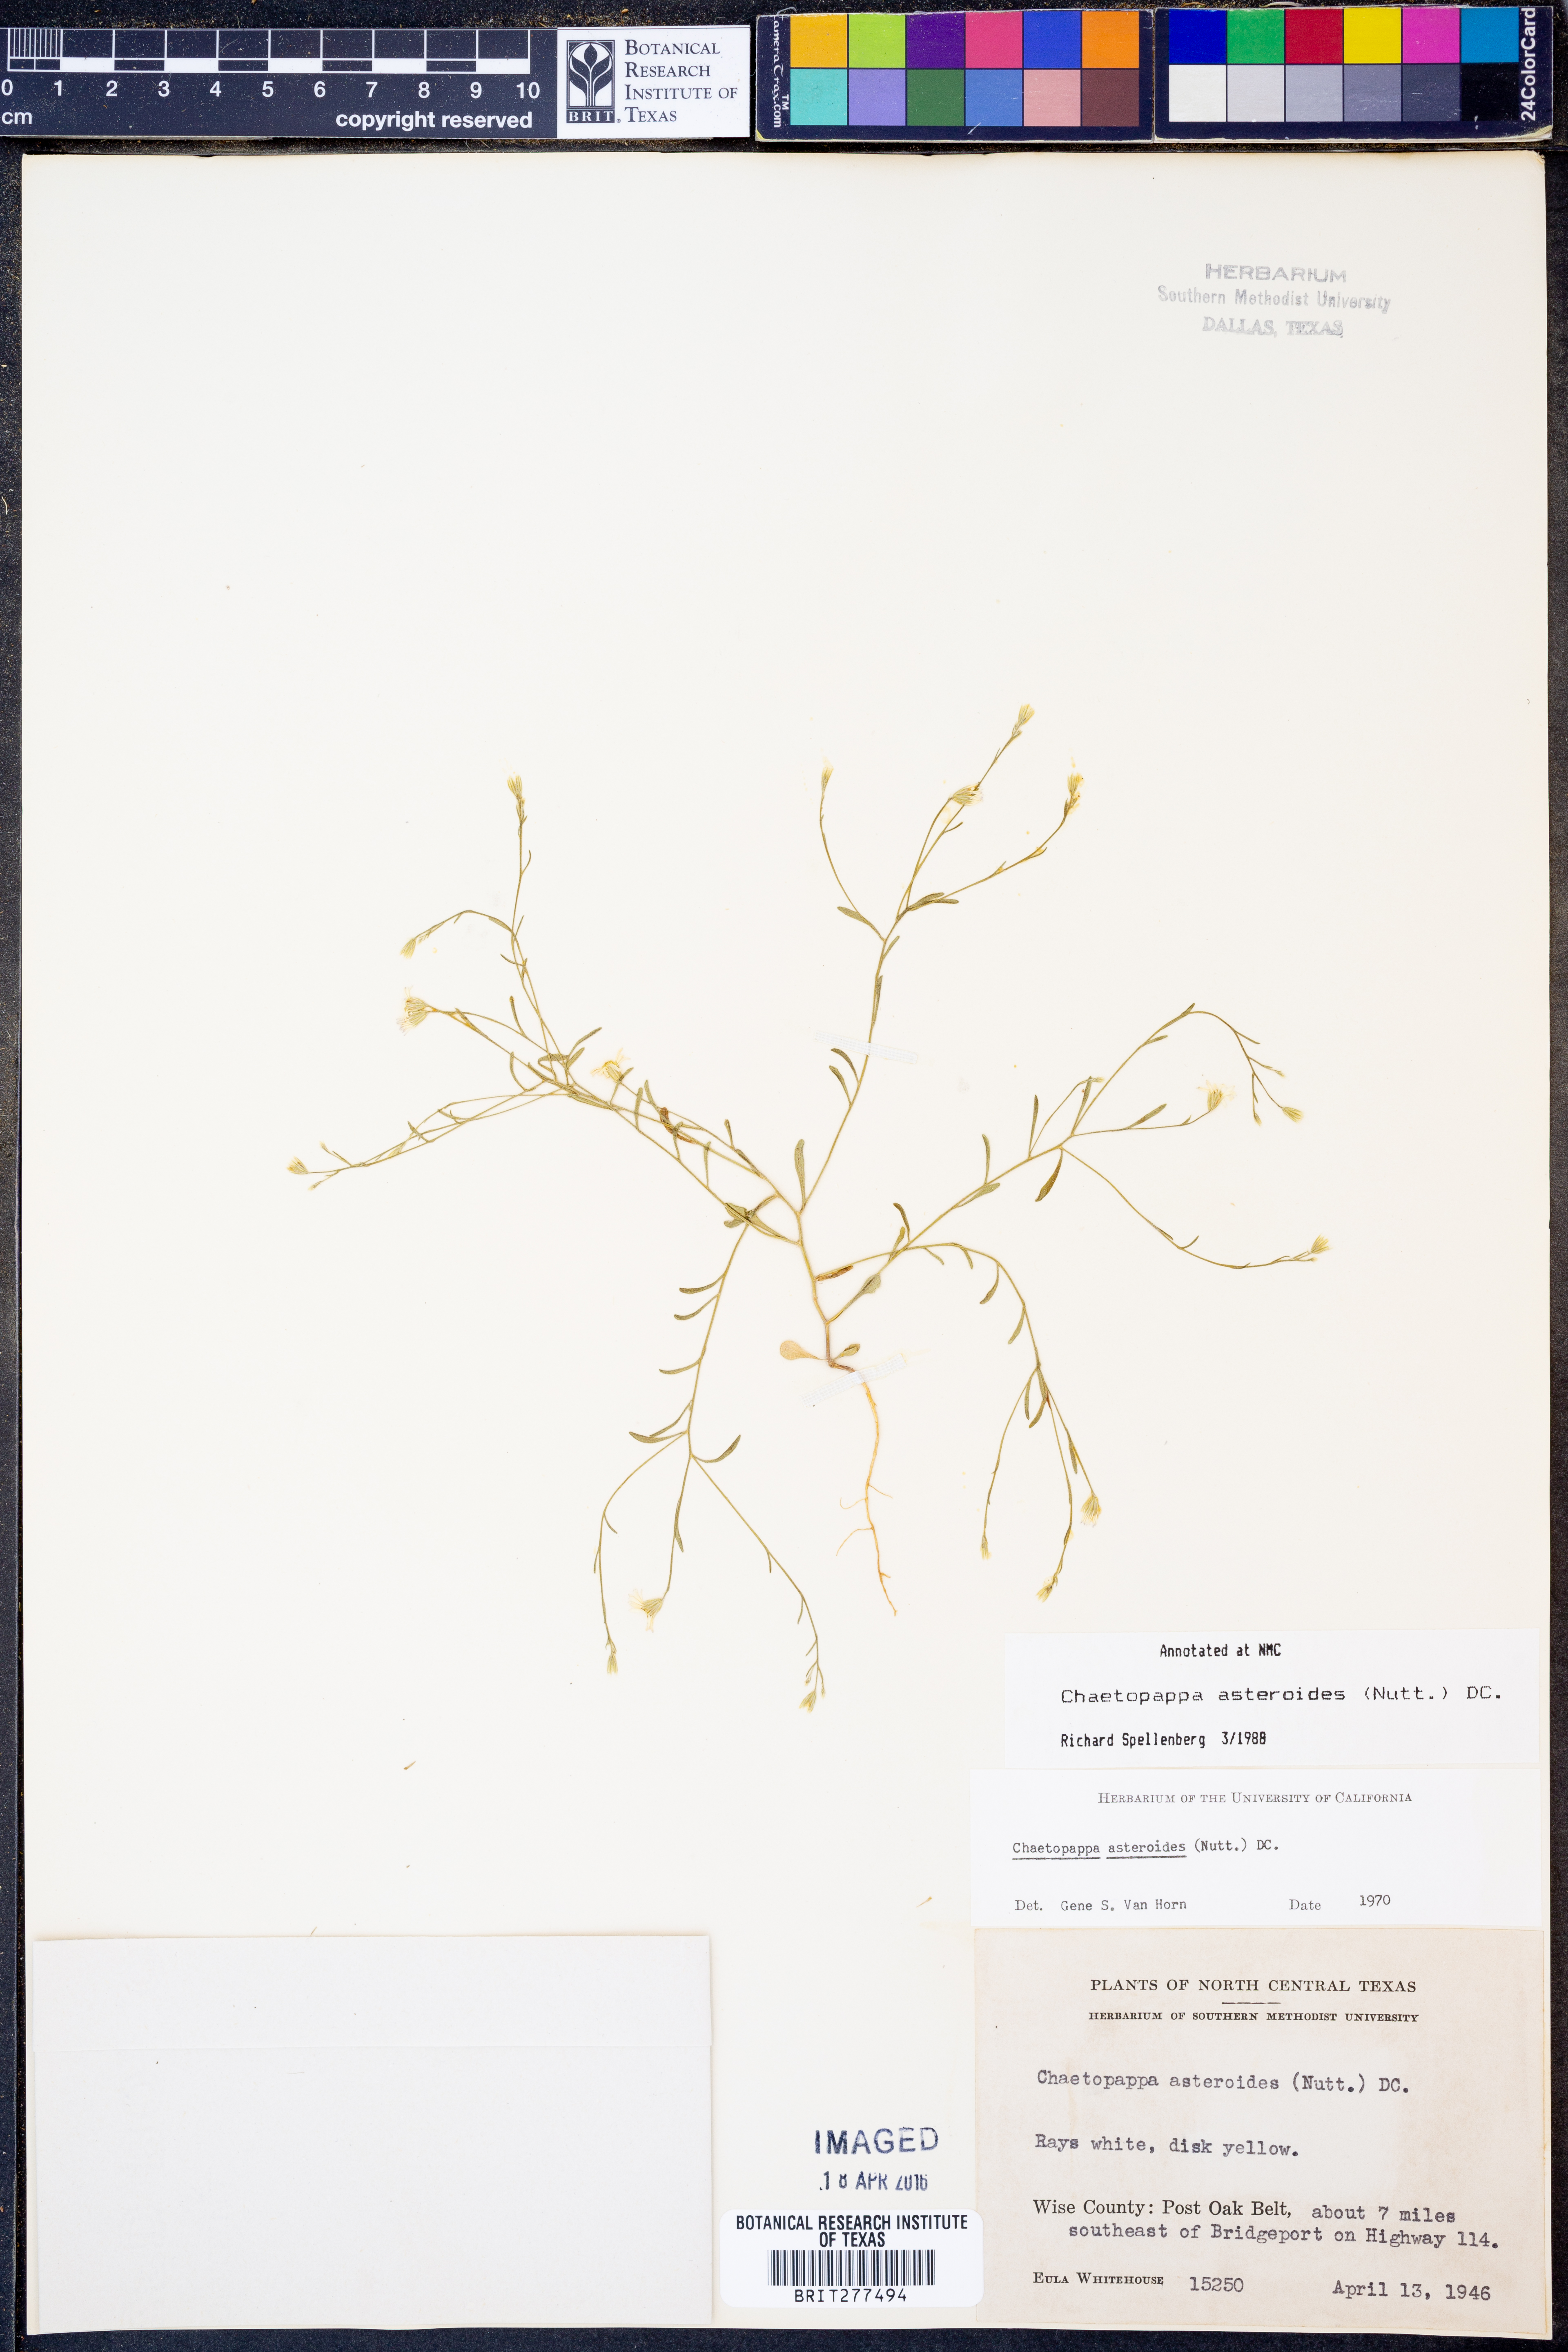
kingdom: Plantae
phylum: Tracheophyta
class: Magnoliopsida
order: Asterales
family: Asteraceae
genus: Chaetopappa
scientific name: Chaetopappa asteroides
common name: Tiny lazy daisy
